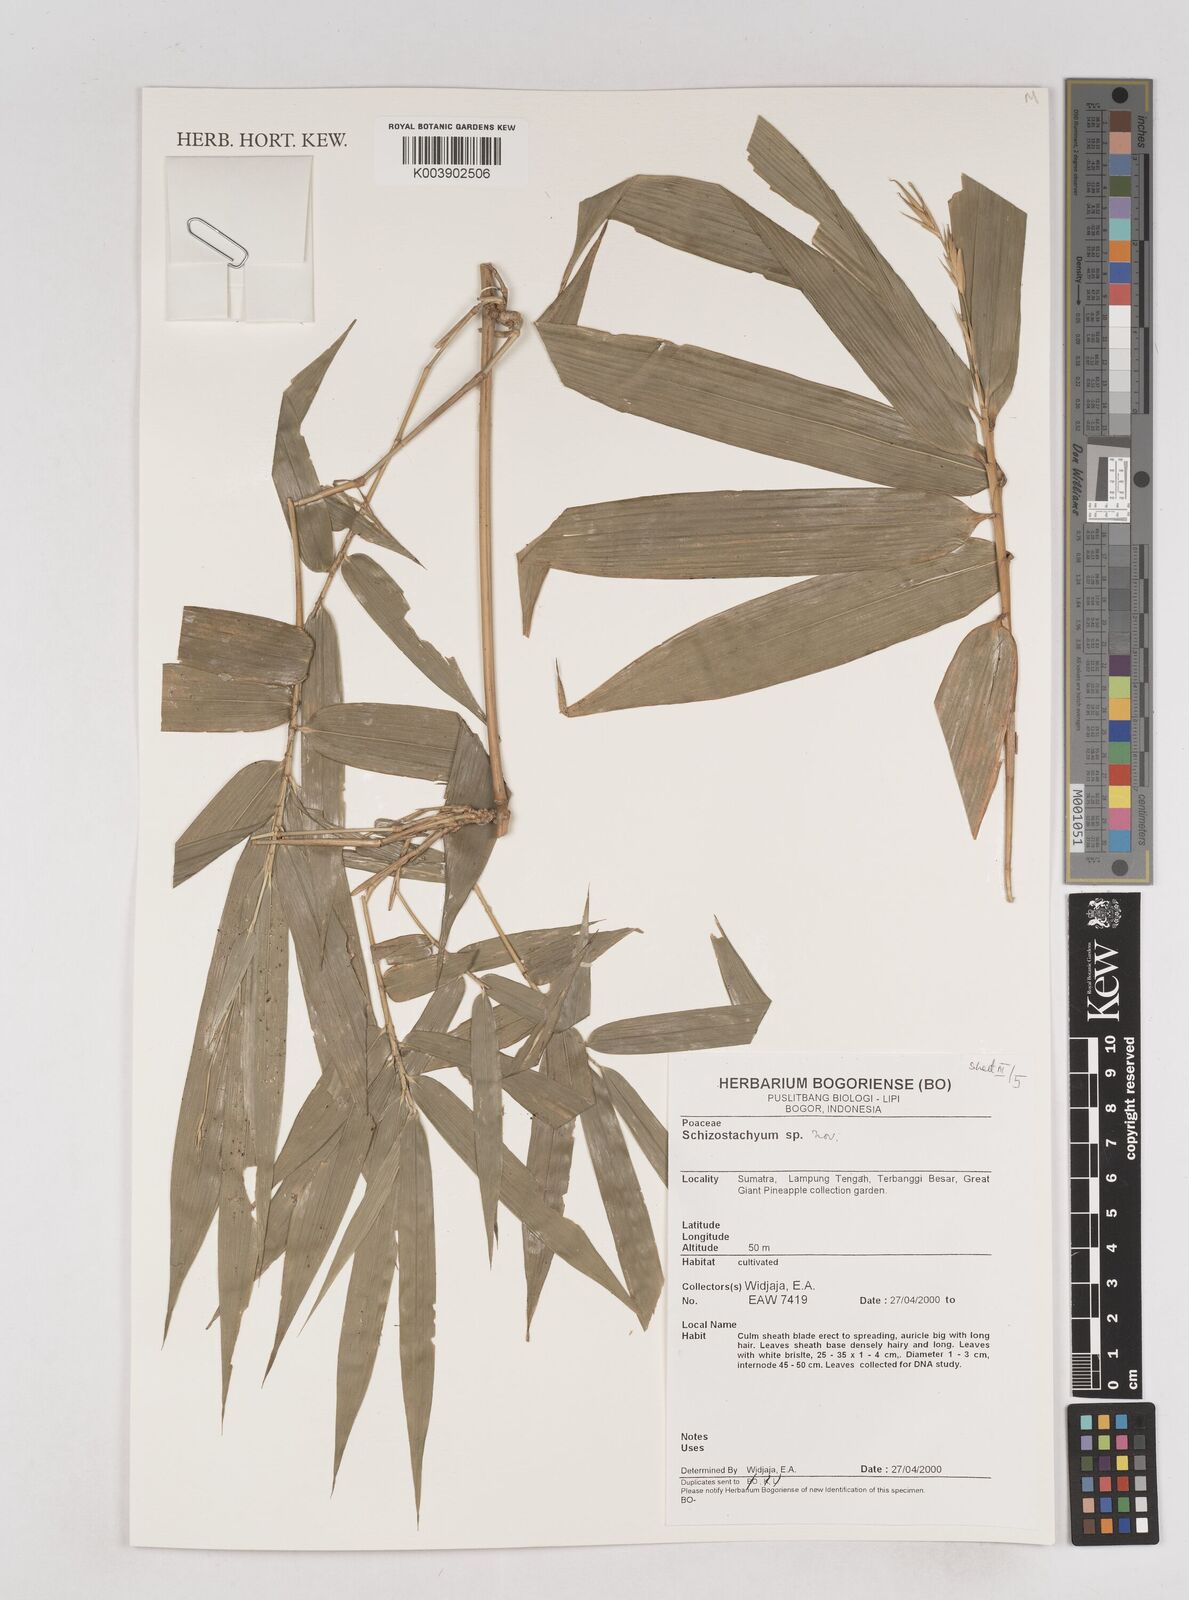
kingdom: Plantae
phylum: Tracheophyta
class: Liliopsida
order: Poales
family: Poaceae
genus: Schizostachyum
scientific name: Schizostachyum
